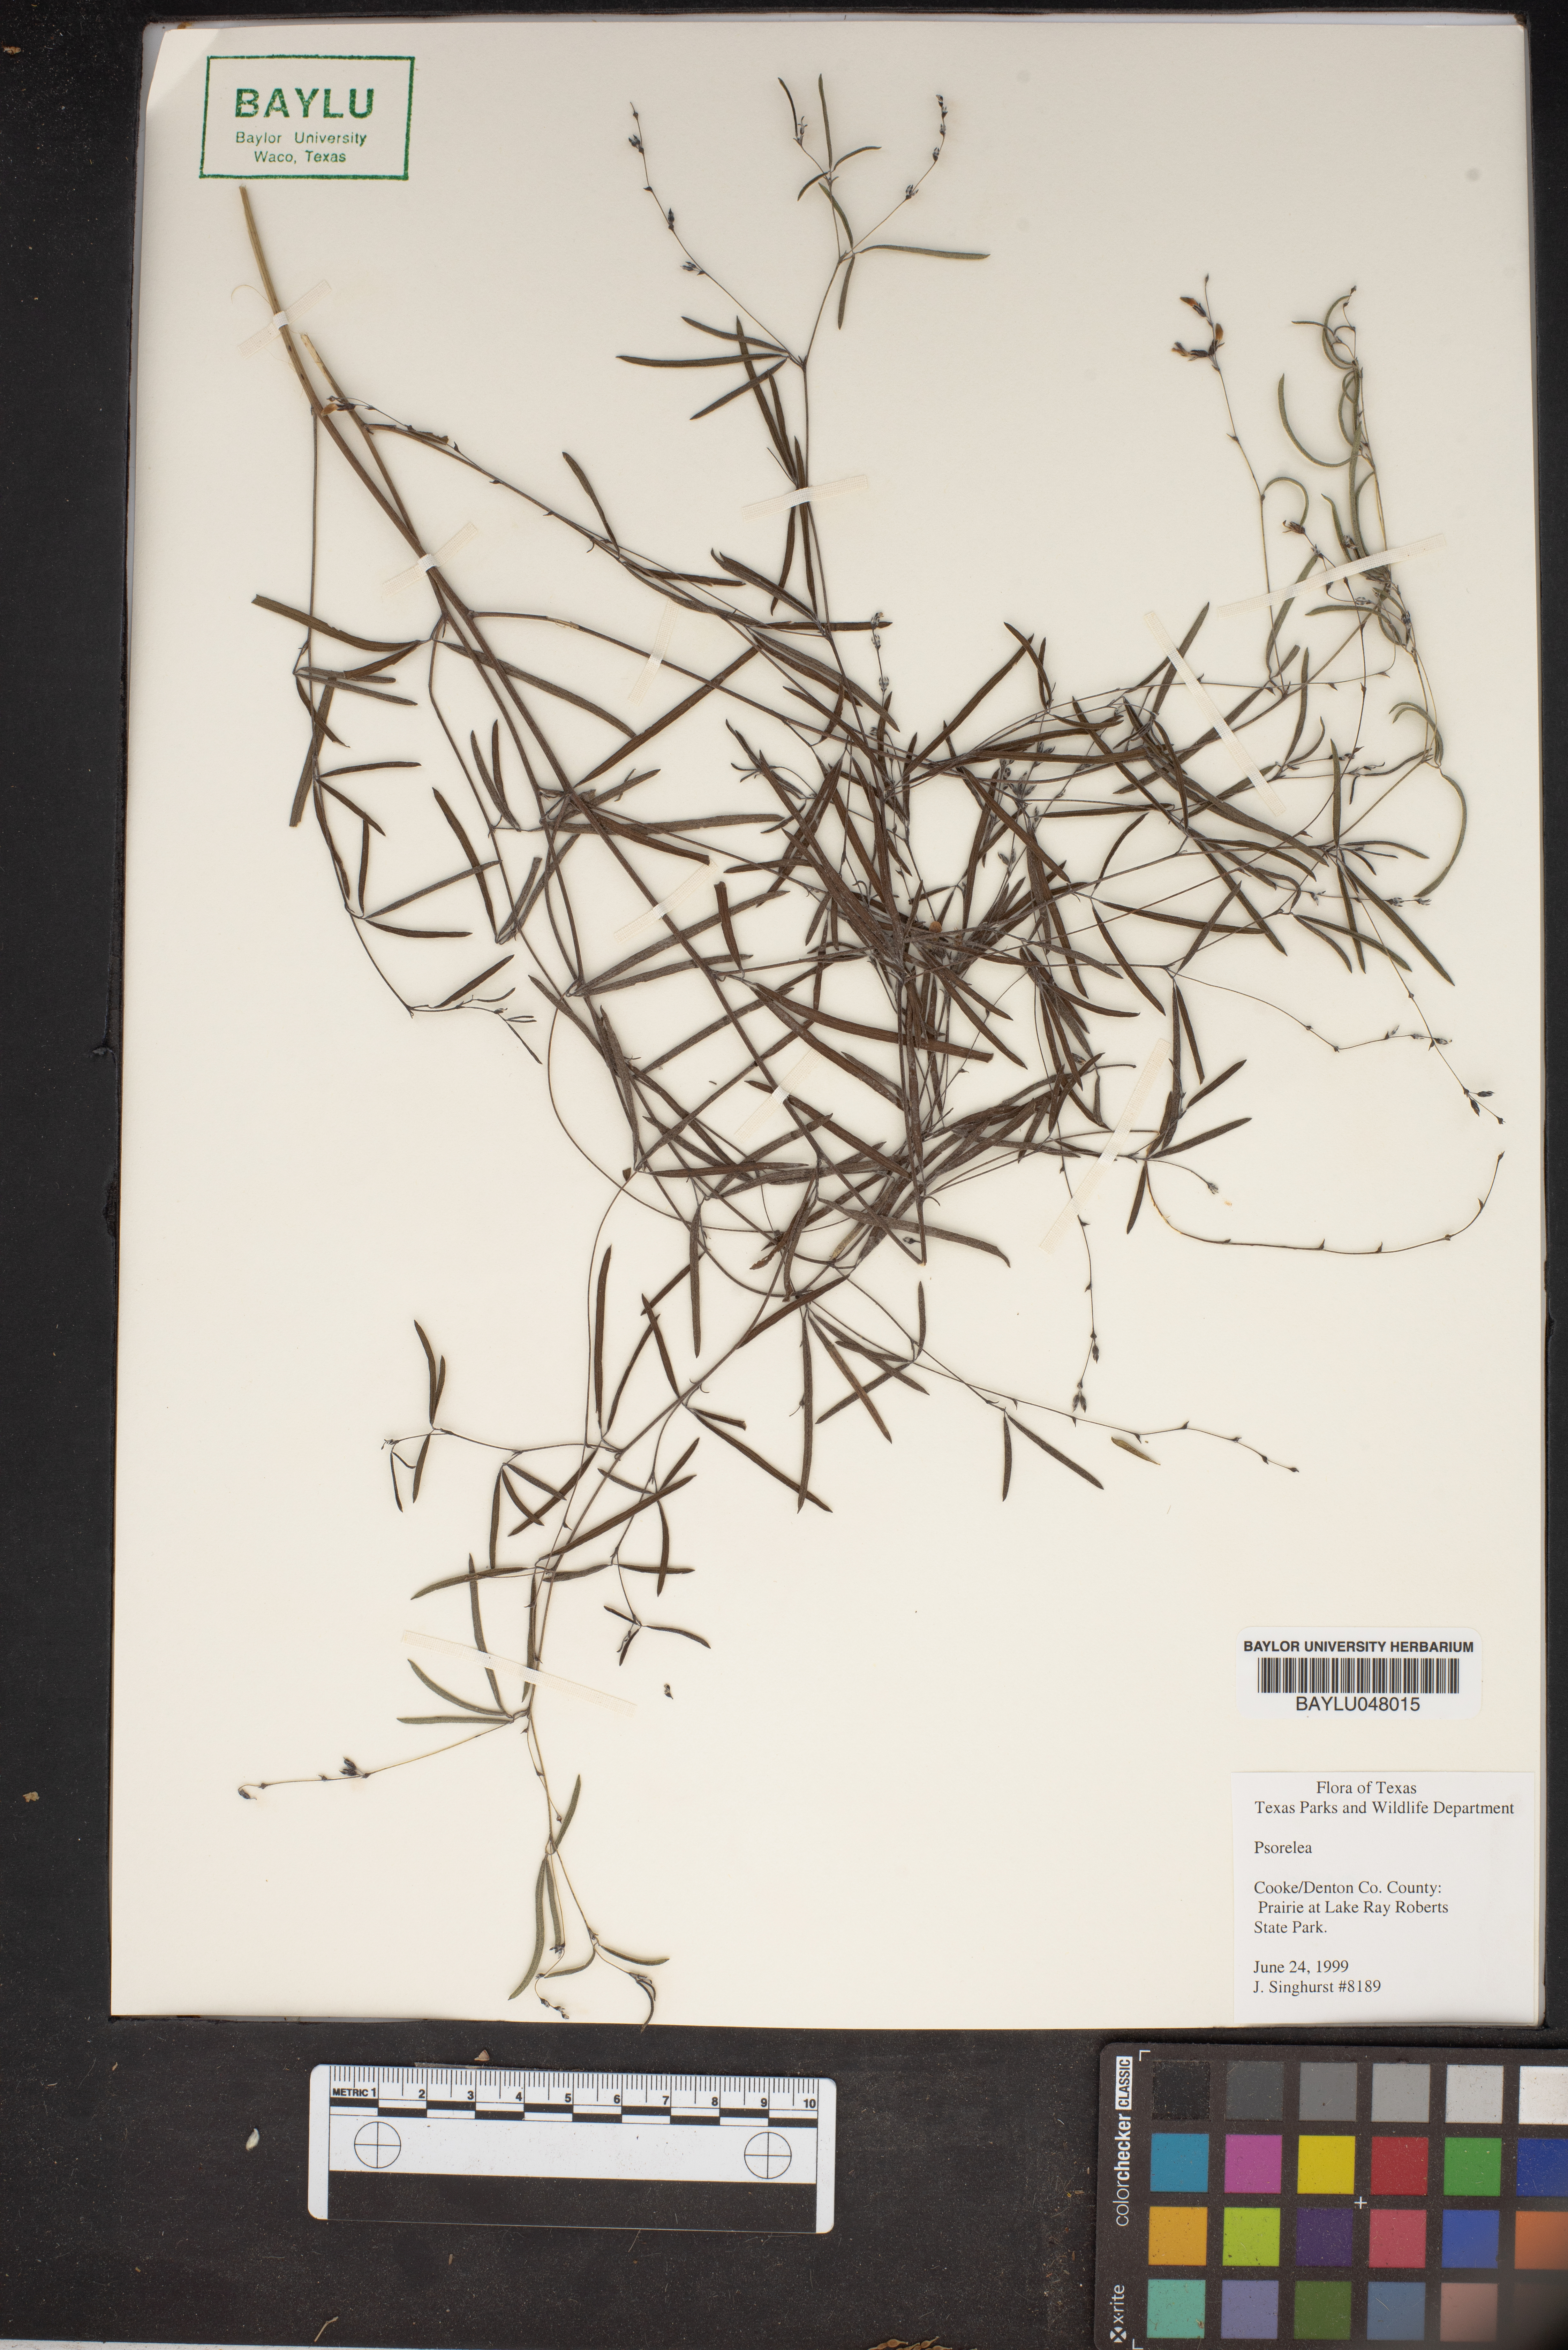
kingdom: Animalia
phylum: Arthropoda
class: Insecta
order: Psocodea
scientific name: Psocodea
